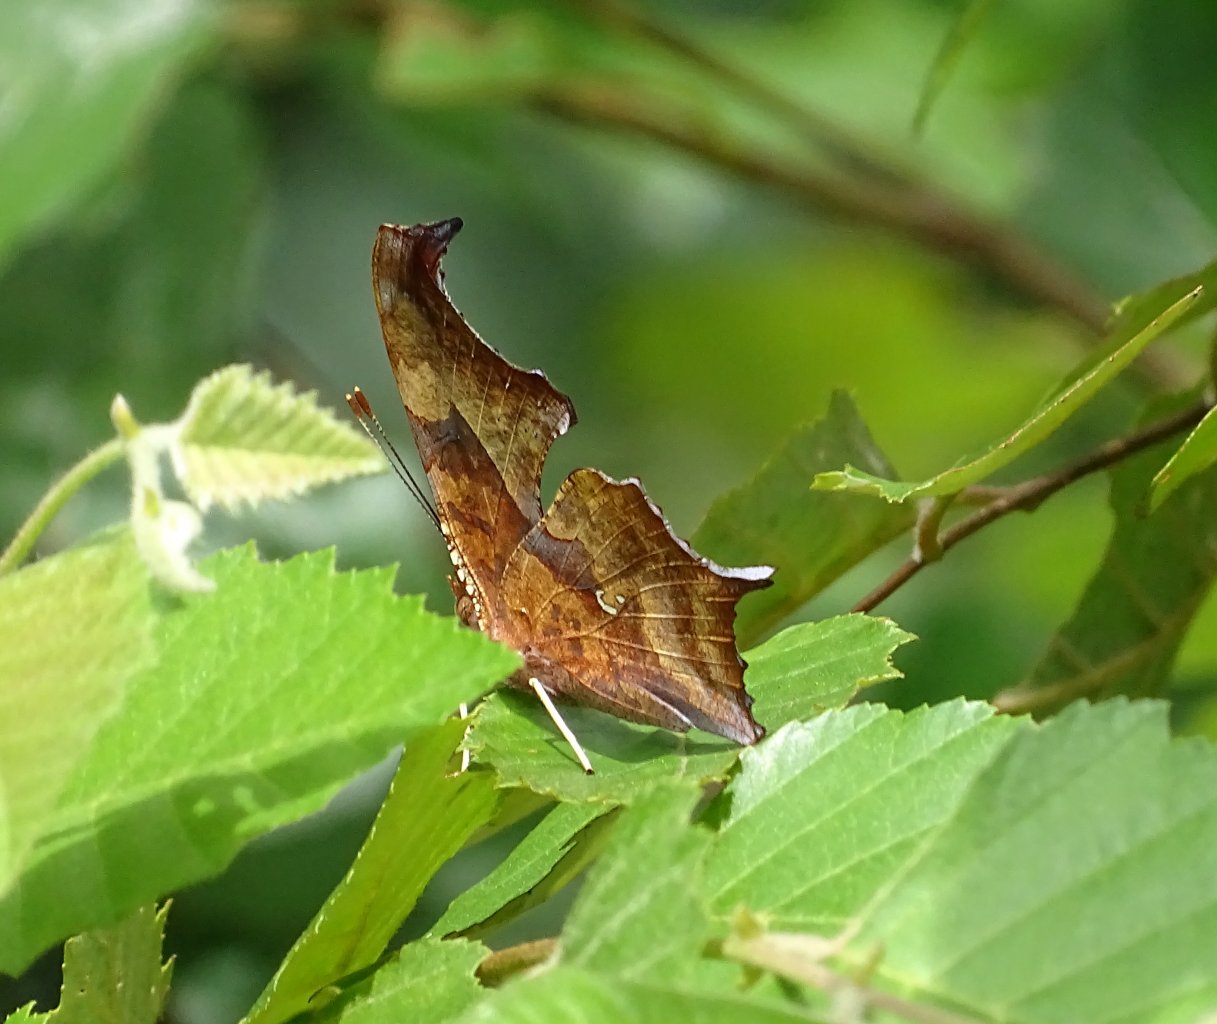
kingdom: Animalia
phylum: Arthropoda
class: Insecta
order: Lepidoptera
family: Nymphalidae
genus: Polygonia
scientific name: Polygonia interrogationis
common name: Question Mark
